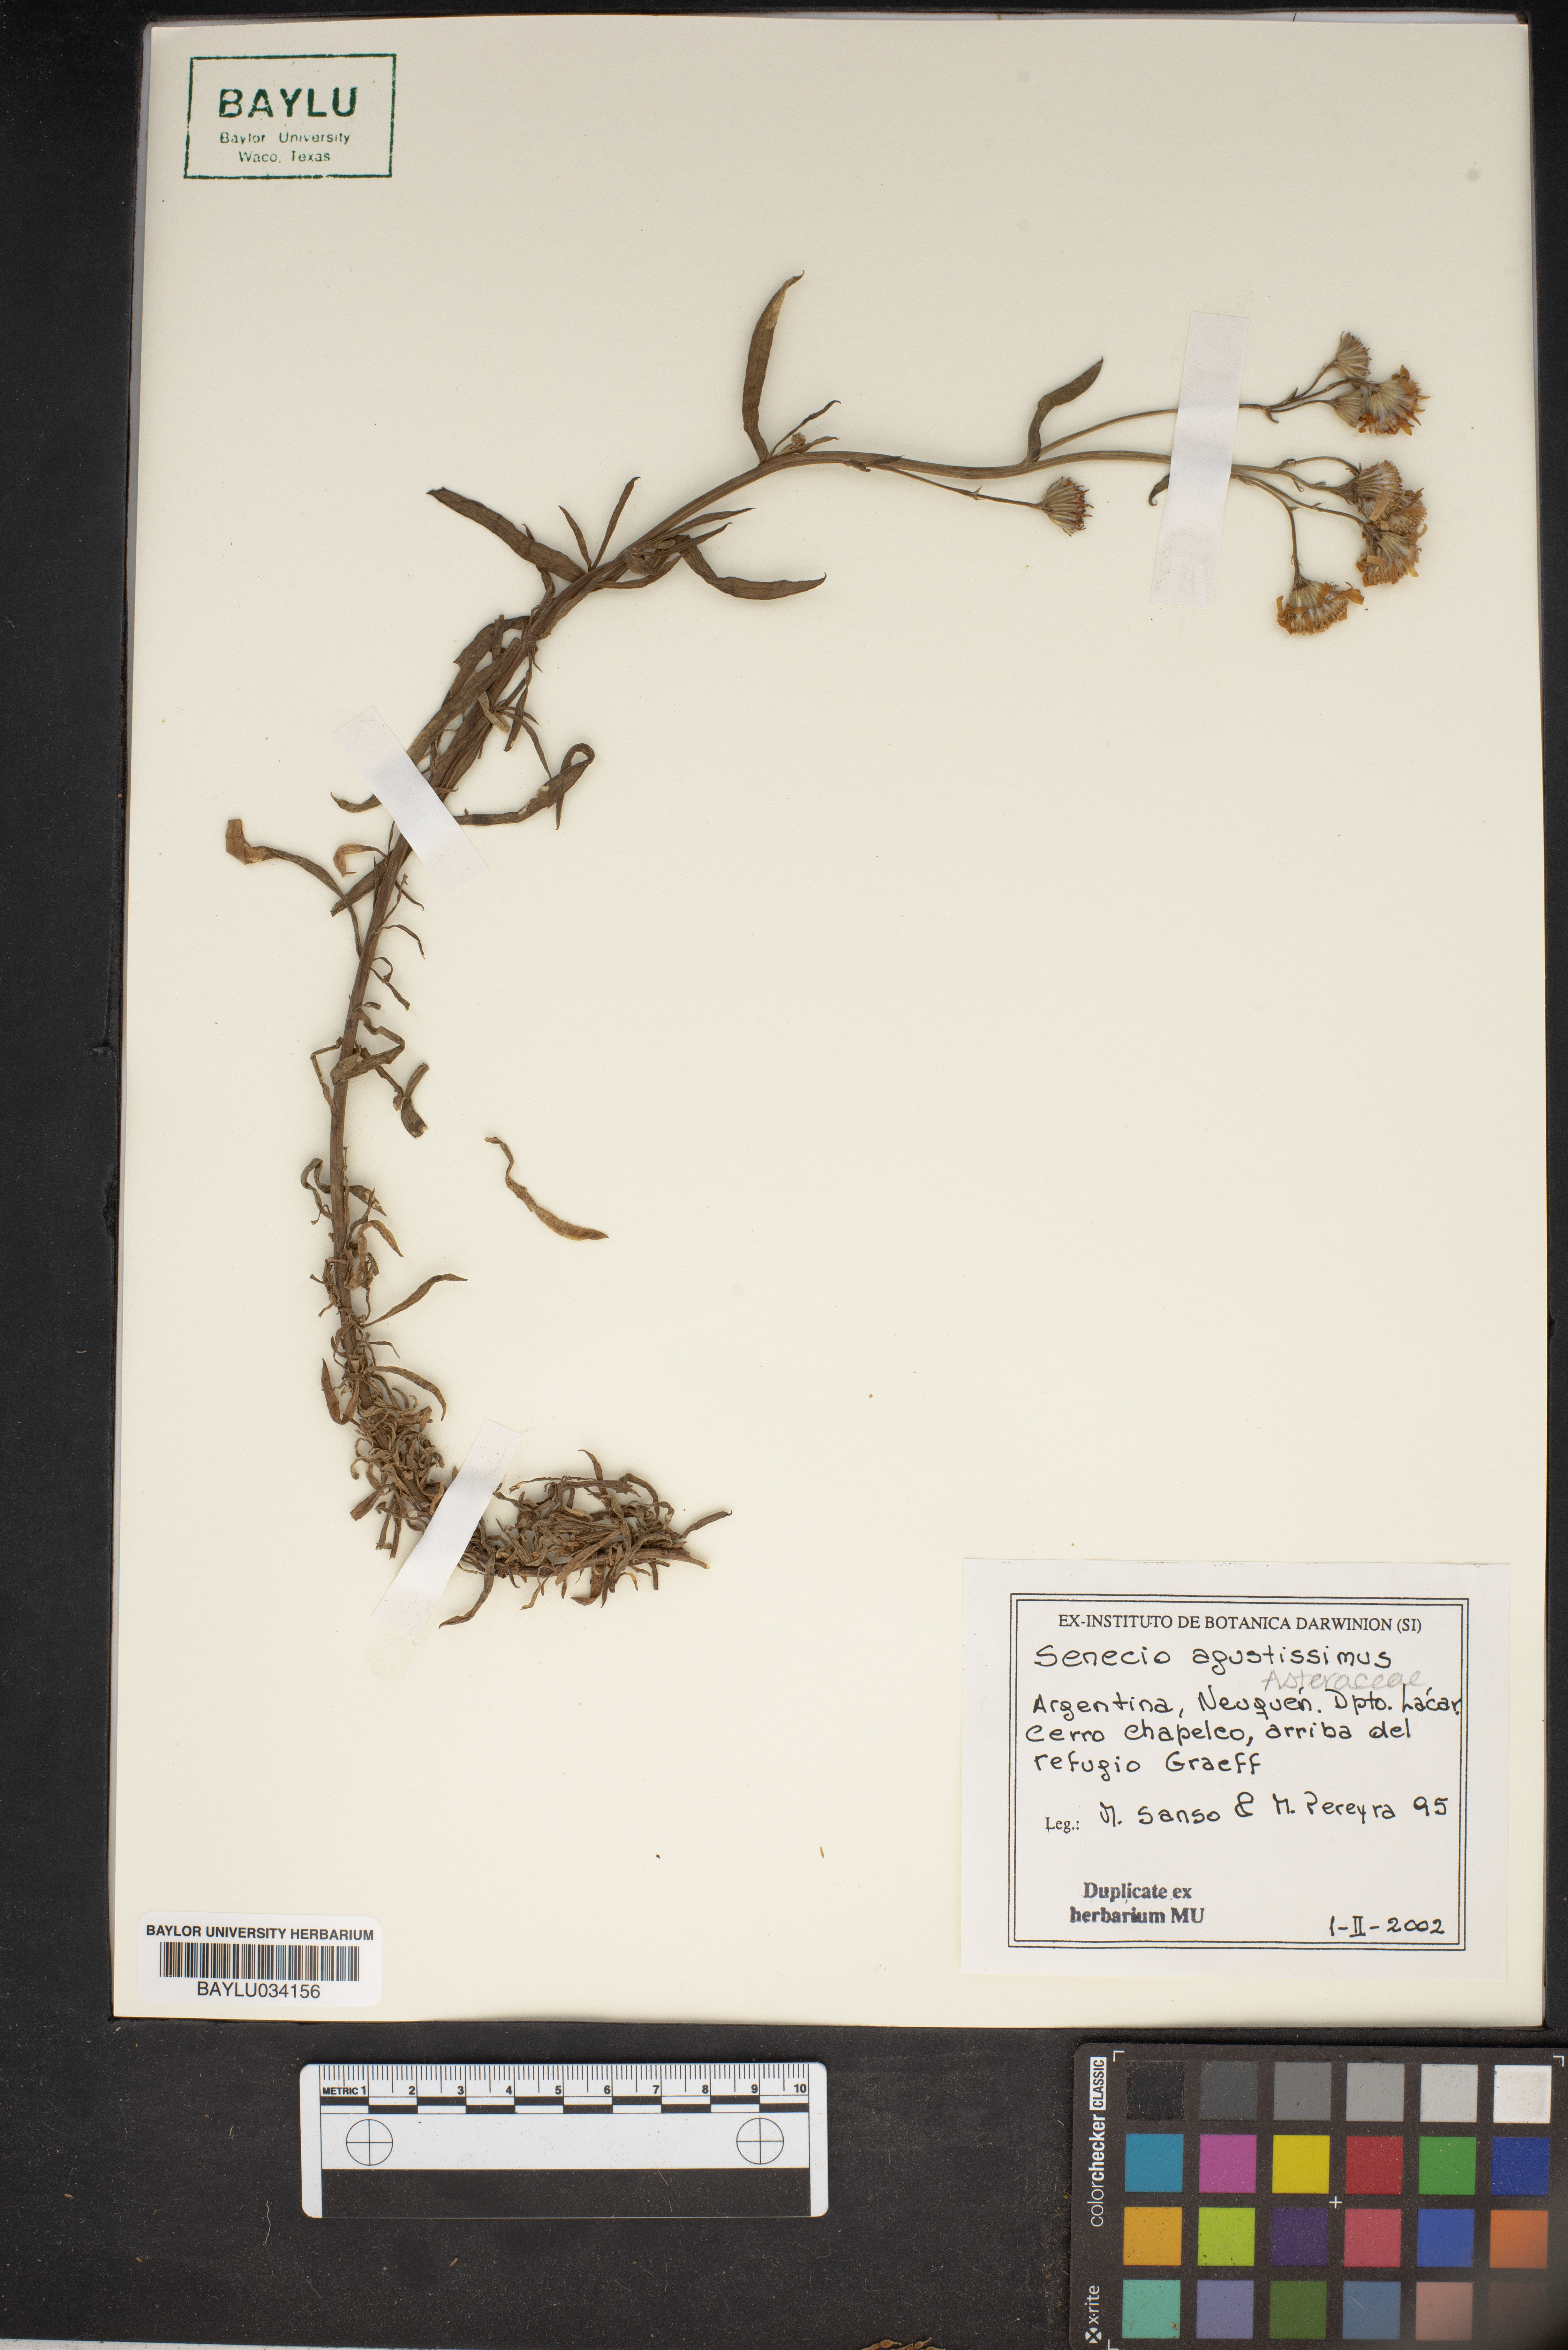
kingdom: Plantae
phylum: Tracheophyta
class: Magnoliopsida
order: Asterales
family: Asteraceae
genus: Senecio
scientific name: Senecio
